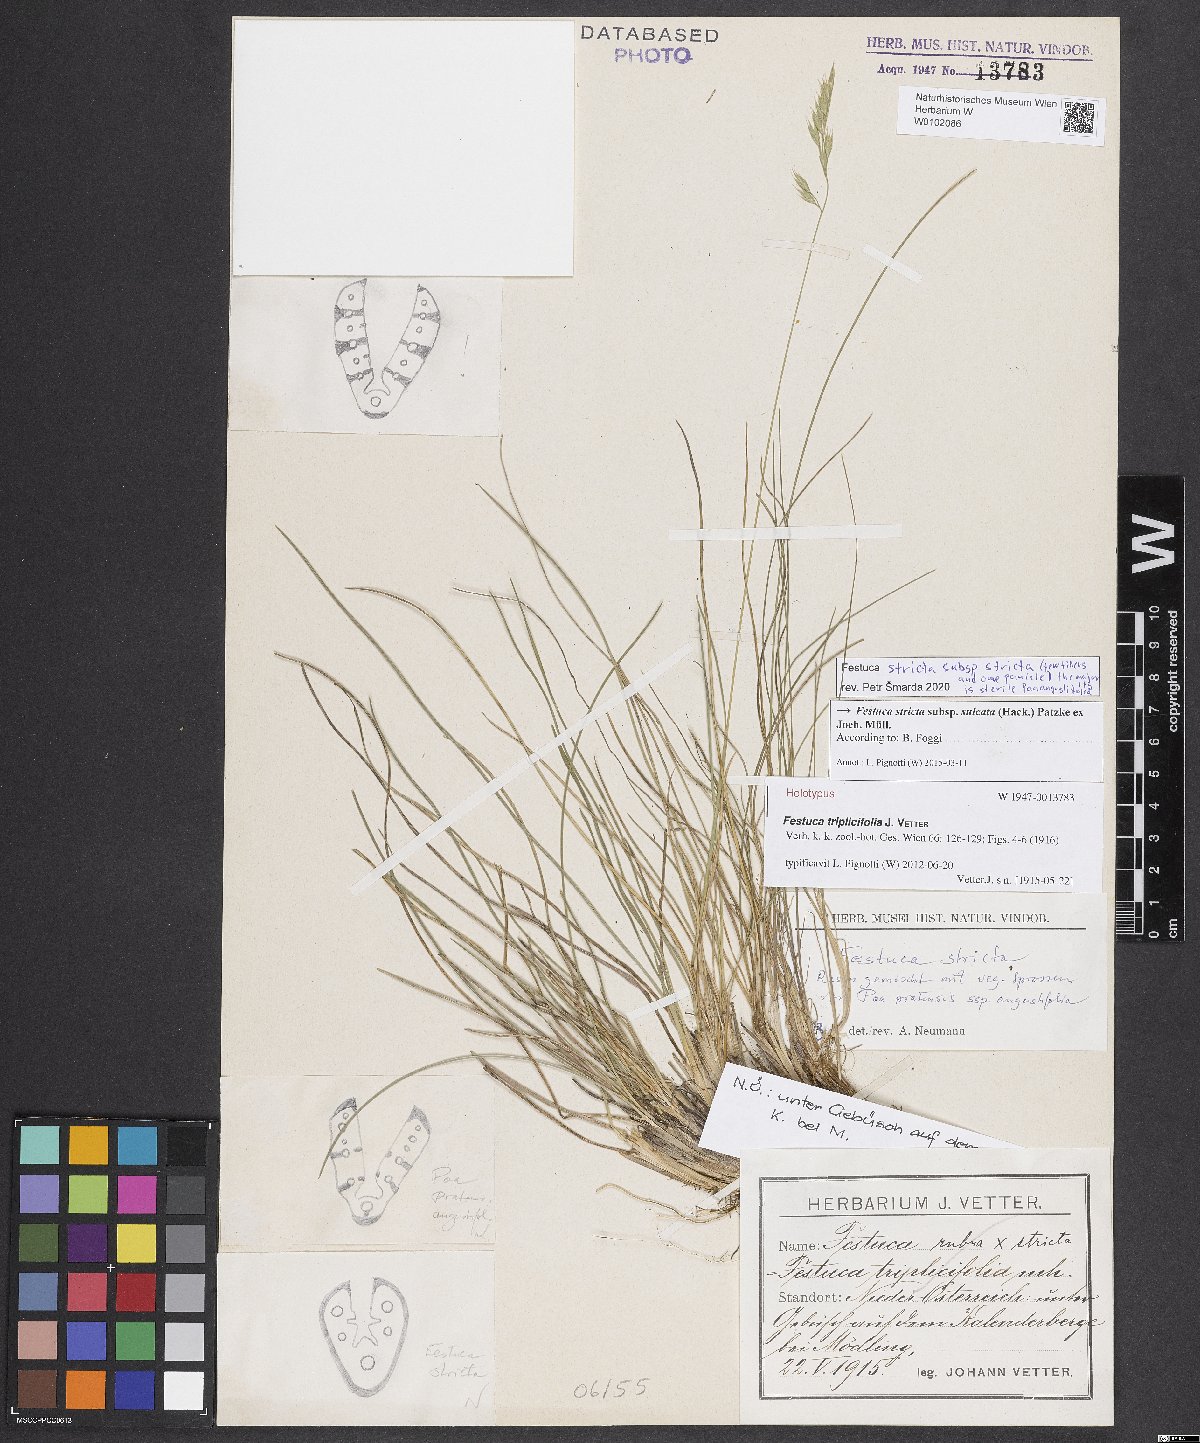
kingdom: Plantae
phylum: Tracheophyta
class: Liliopsida
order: Poales
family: Poaceae
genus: Festuca
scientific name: Festuca rupicola
